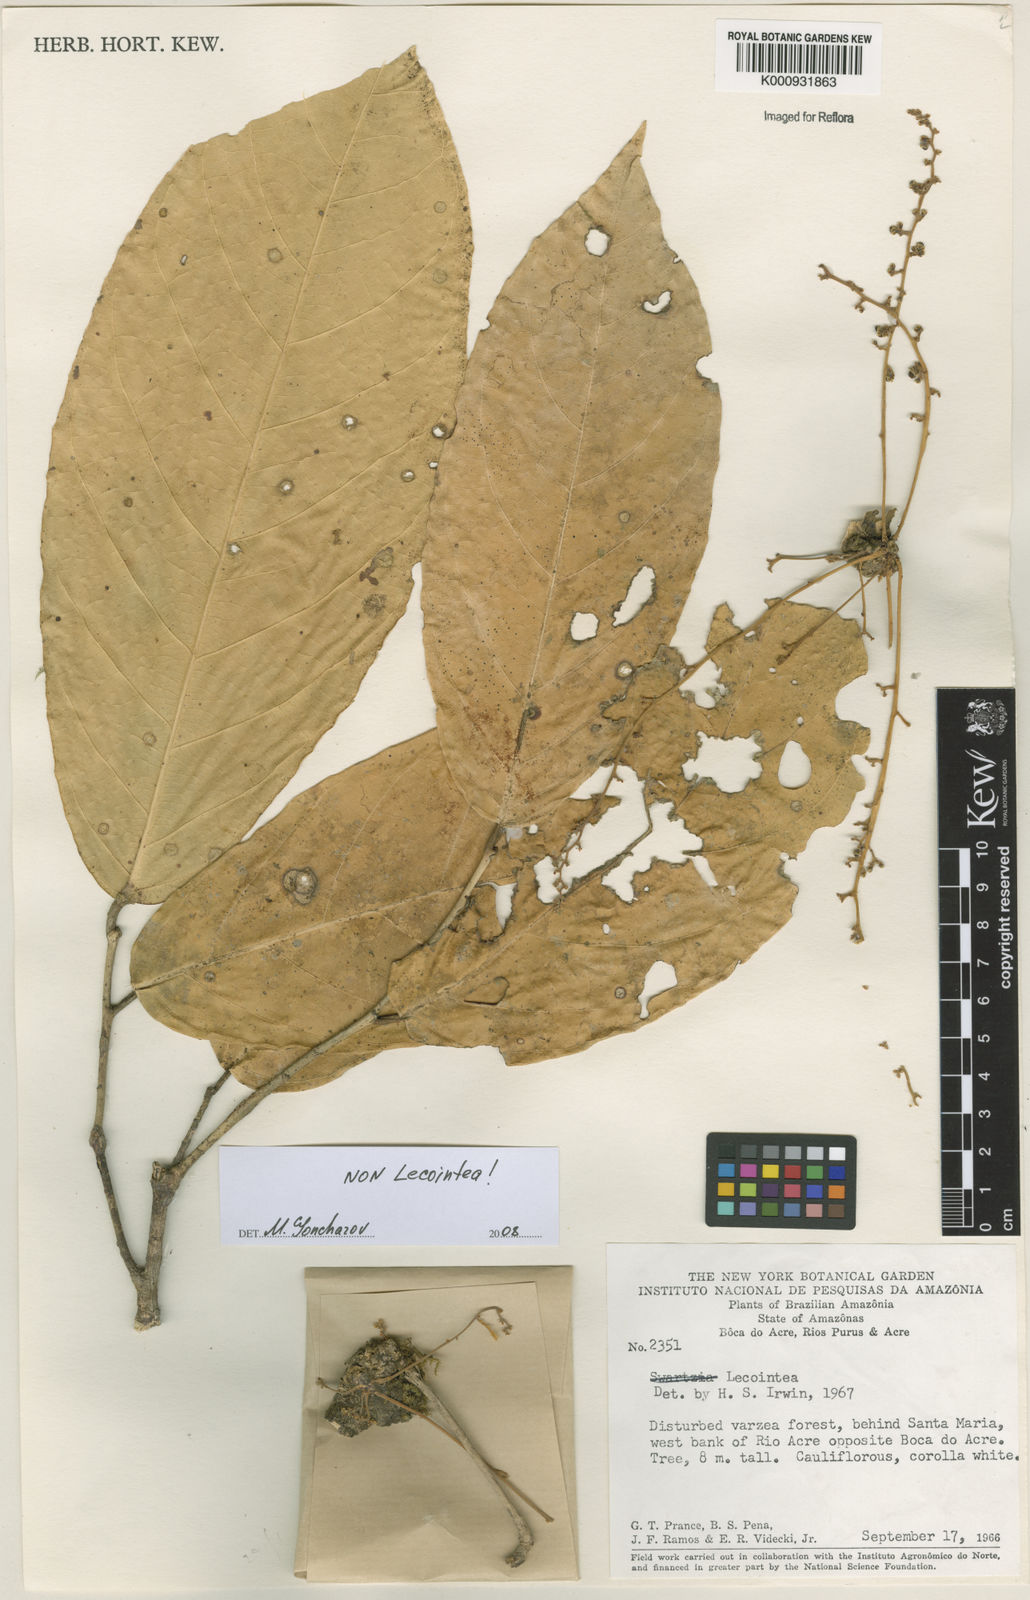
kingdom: Plantae
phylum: Tracheophyta
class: Magnoliopsida
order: Fabales
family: Fabaceae
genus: Lecointea
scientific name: Lecointea
